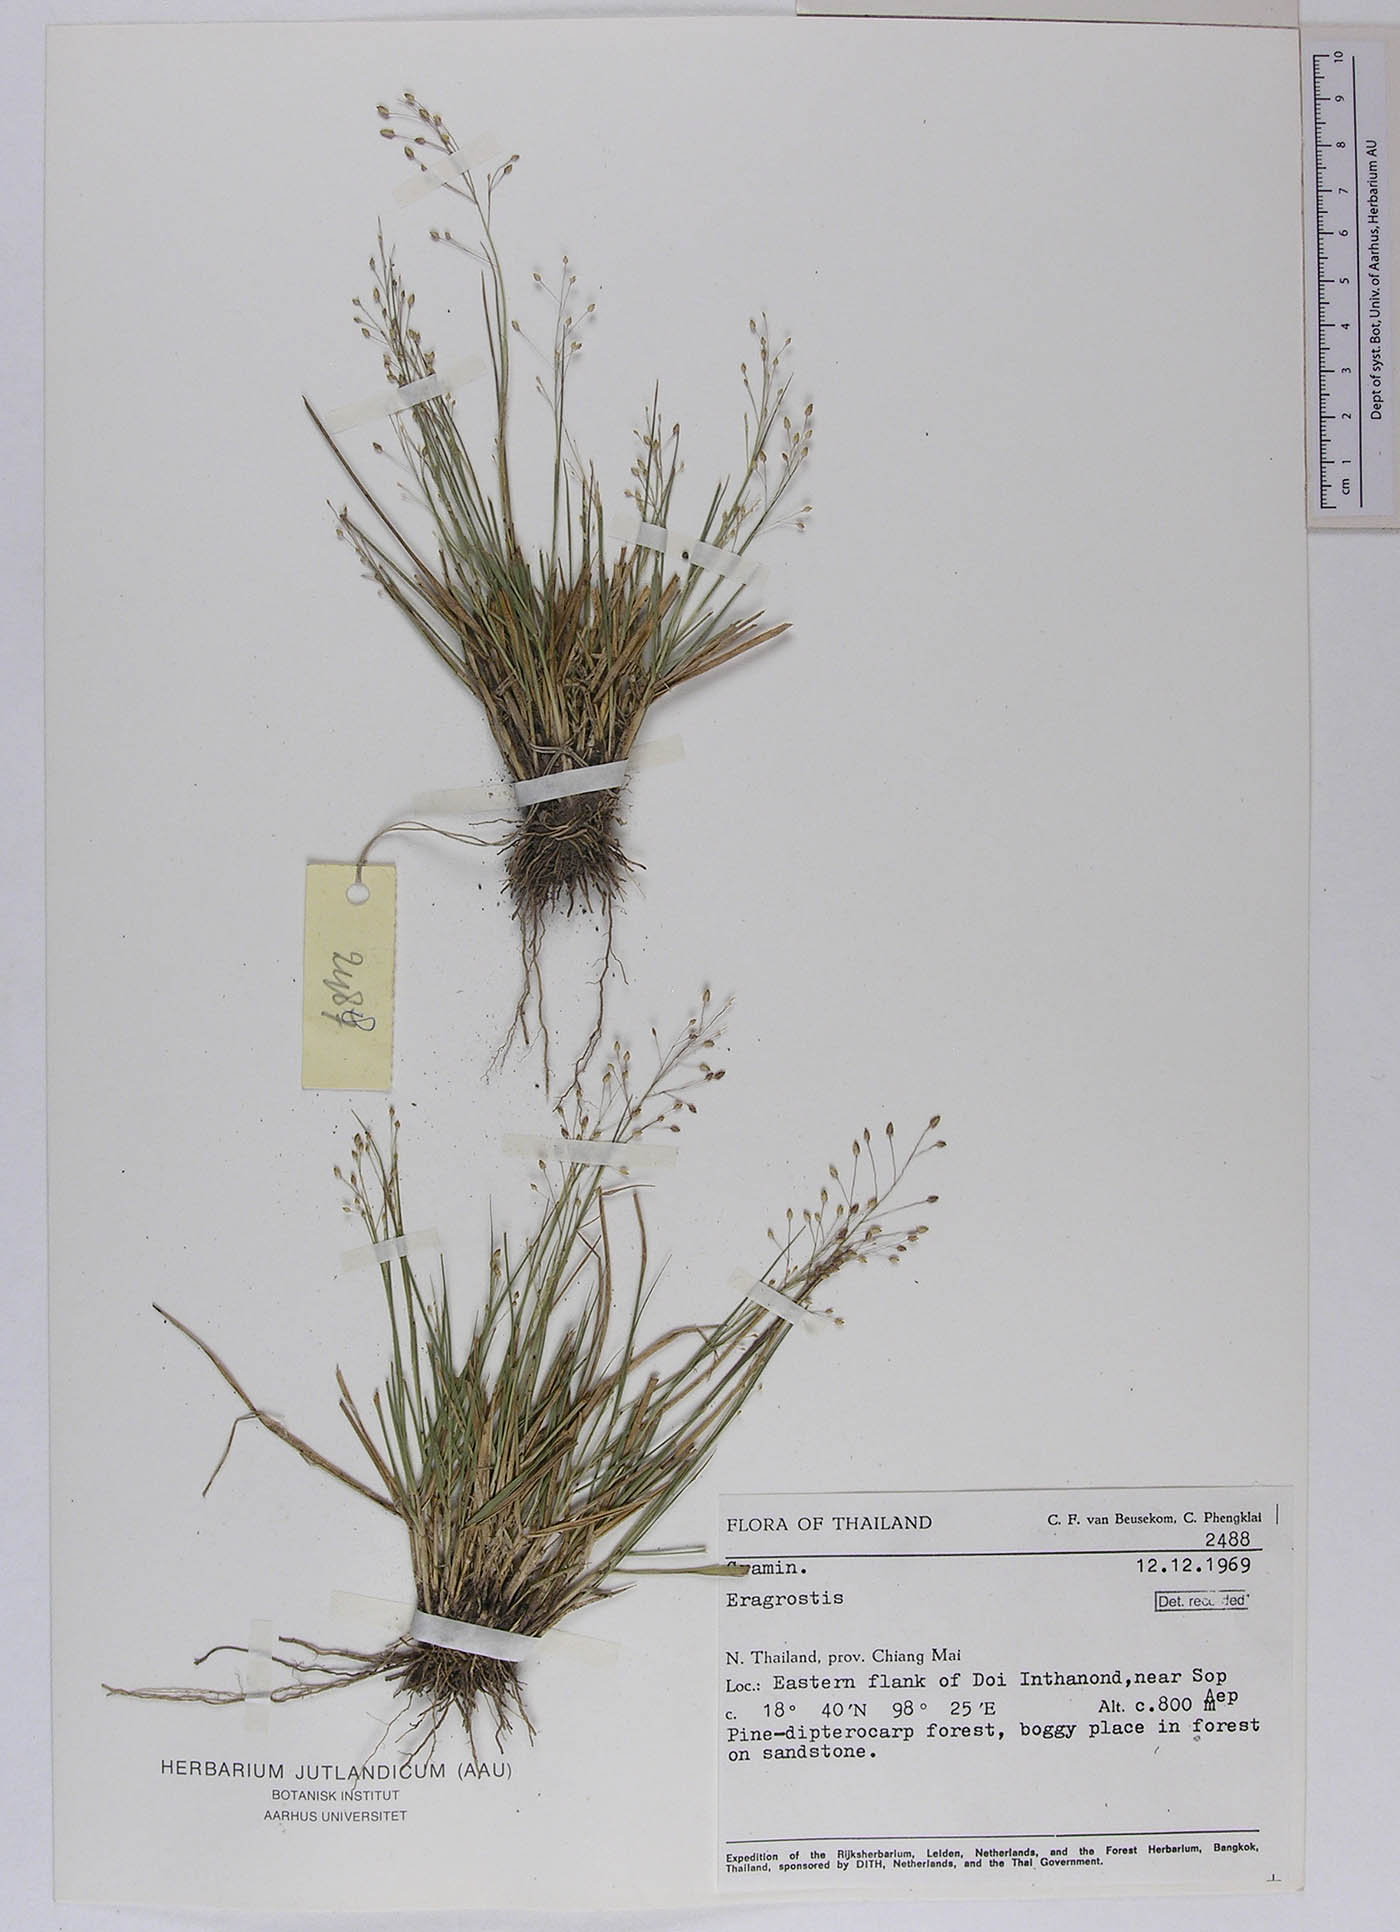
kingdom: Plantae
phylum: Tracheophyta
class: Liliopsida
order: Poales
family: Poaceae
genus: Eragrostis
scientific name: Eragrostis montana
